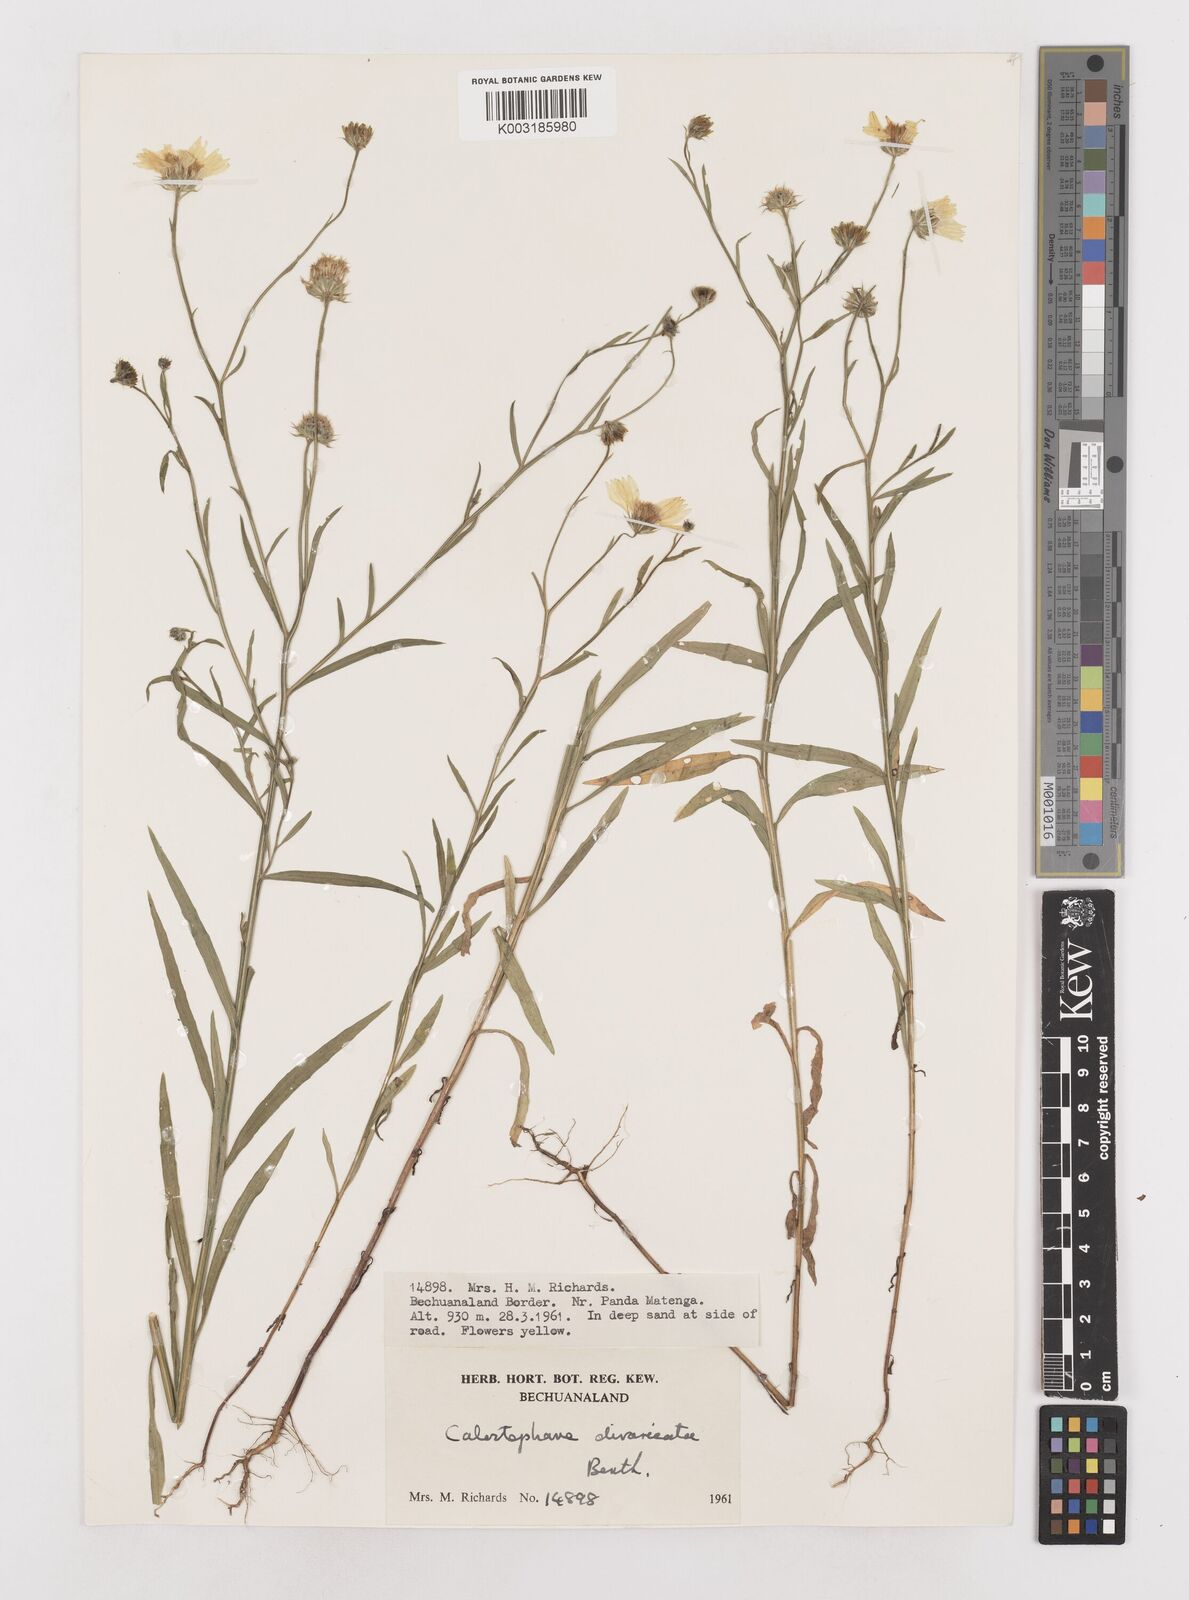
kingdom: Plantae
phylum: Tracheophyta
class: Magnoliopsida
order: Asterales
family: Asteraceae
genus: Calostephane
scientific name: Calostephane divaricata
